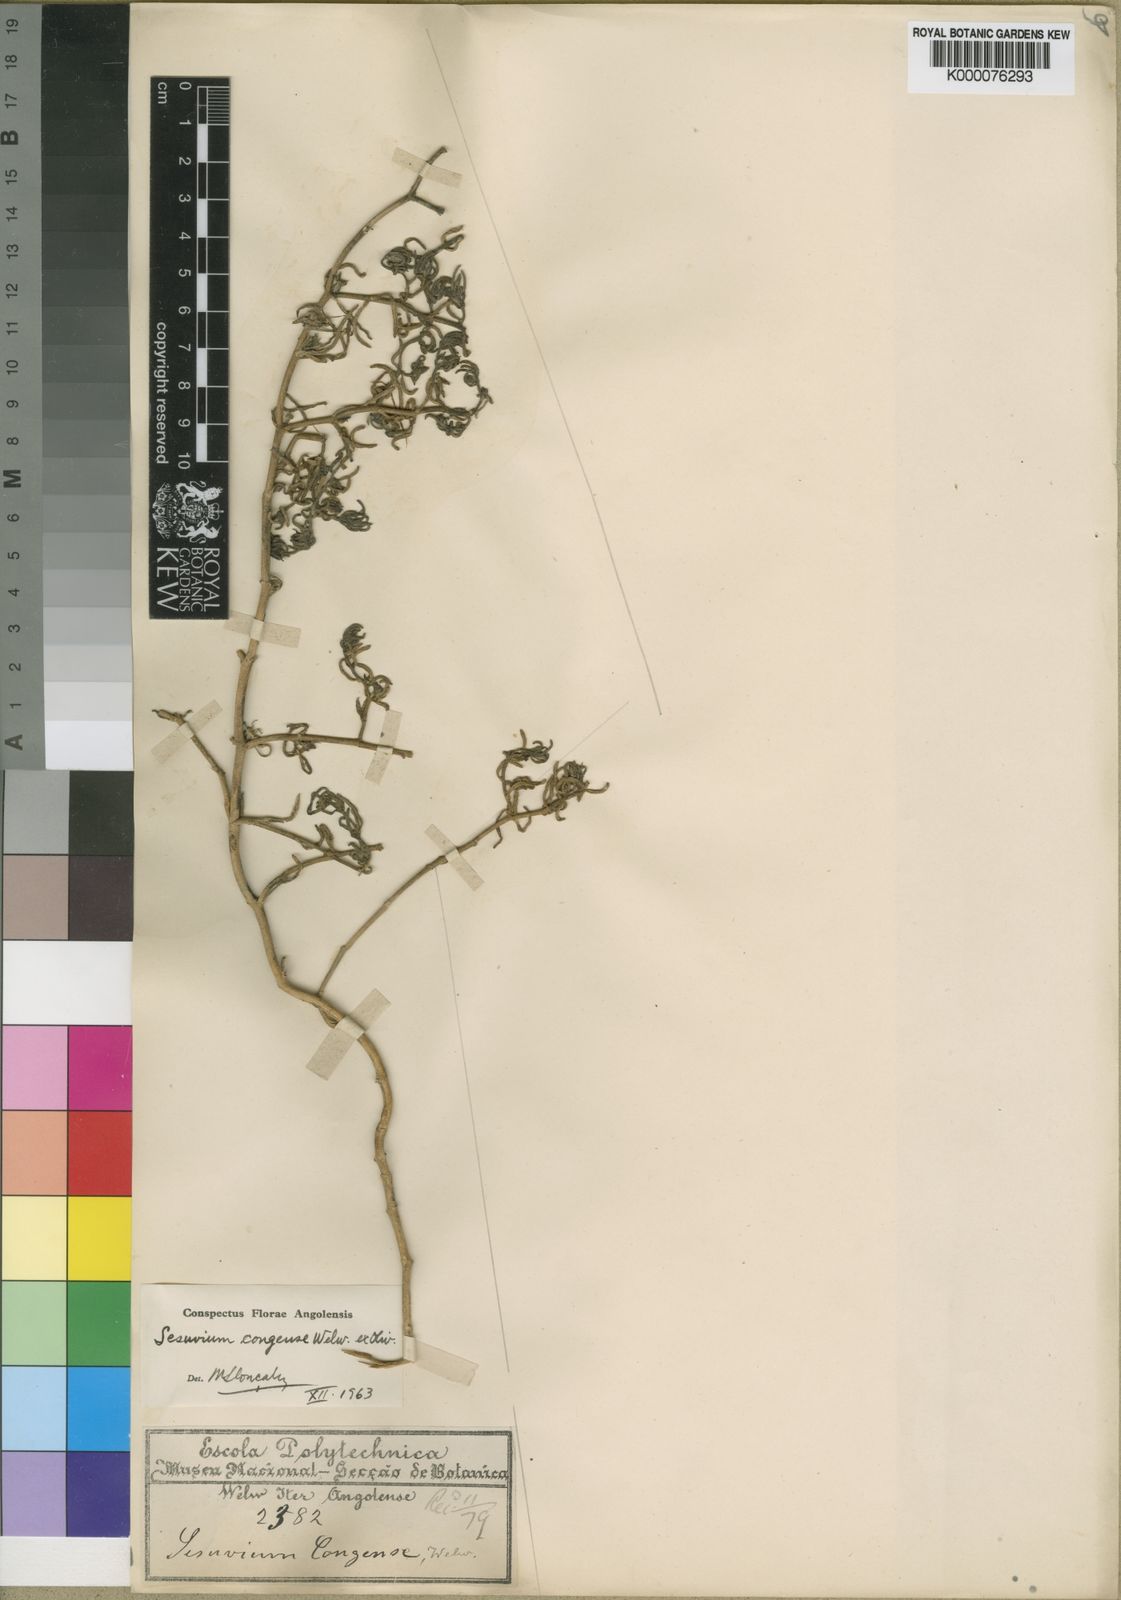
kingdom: Plantae
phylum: Tracheophyta
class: Magnoliopsida
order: Caryophyllales
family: Aizoaceae
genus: Sesuvium
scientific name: Sesuvium congense
